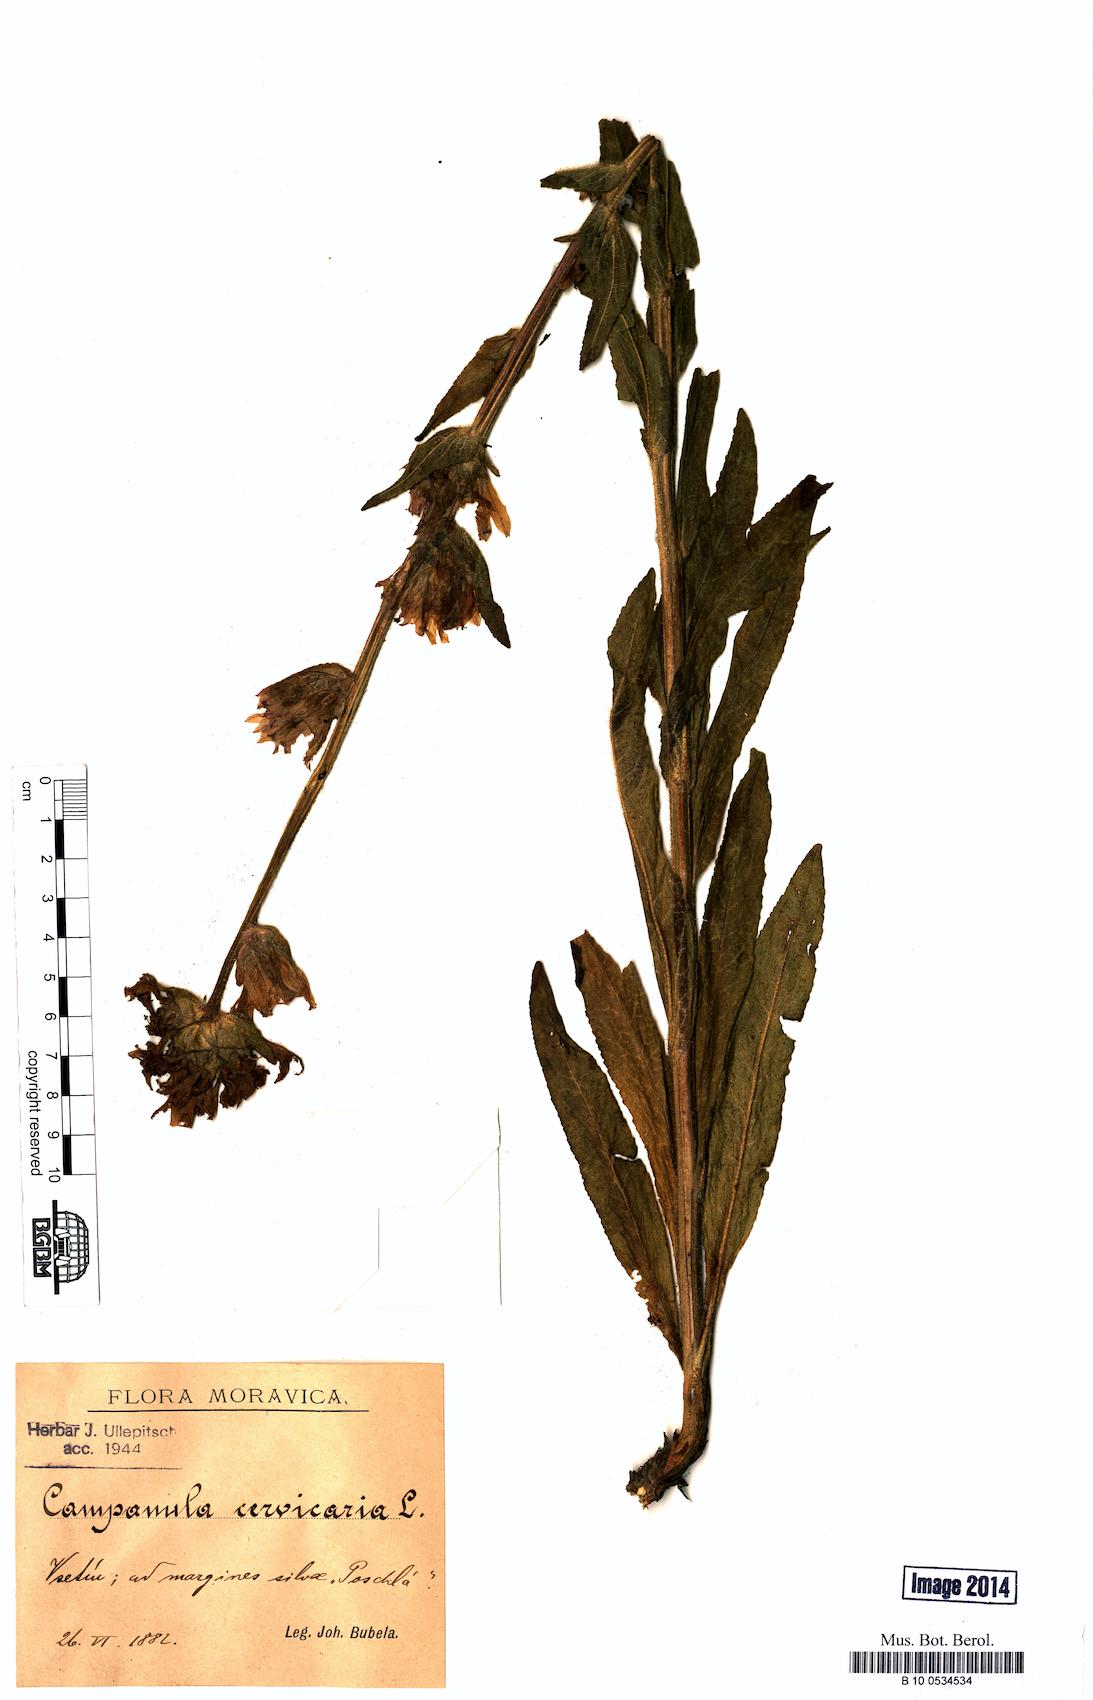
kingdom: Plantae
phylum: Tracheophyta
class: Magnoliopsida
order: Asterales
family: Campanulaceae
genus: Campanula
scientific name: Campanula cervicaria
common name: Bristly bellflower
